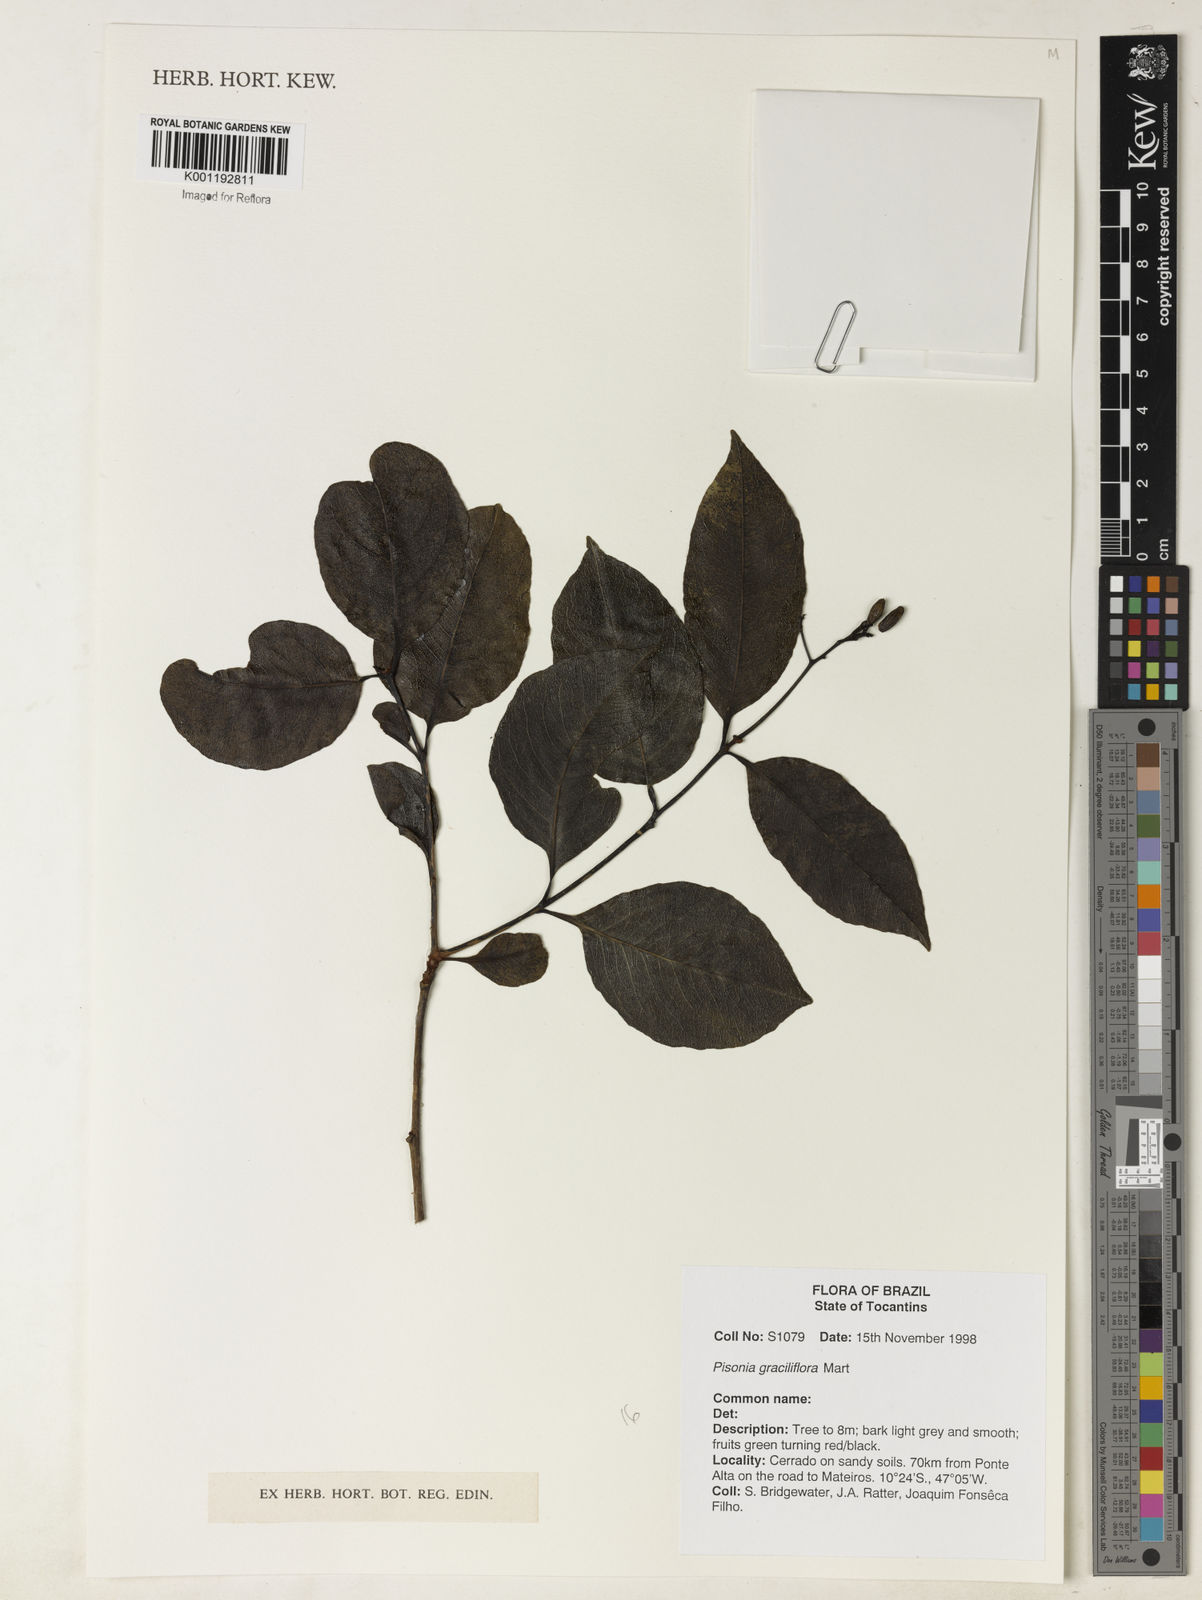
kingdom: Plantae
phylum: Tracheophyta
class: Magnoliopsida
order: Caryophyllales
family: Nyctaginaceae
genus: Guapira
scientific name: Guapira graciliflora
